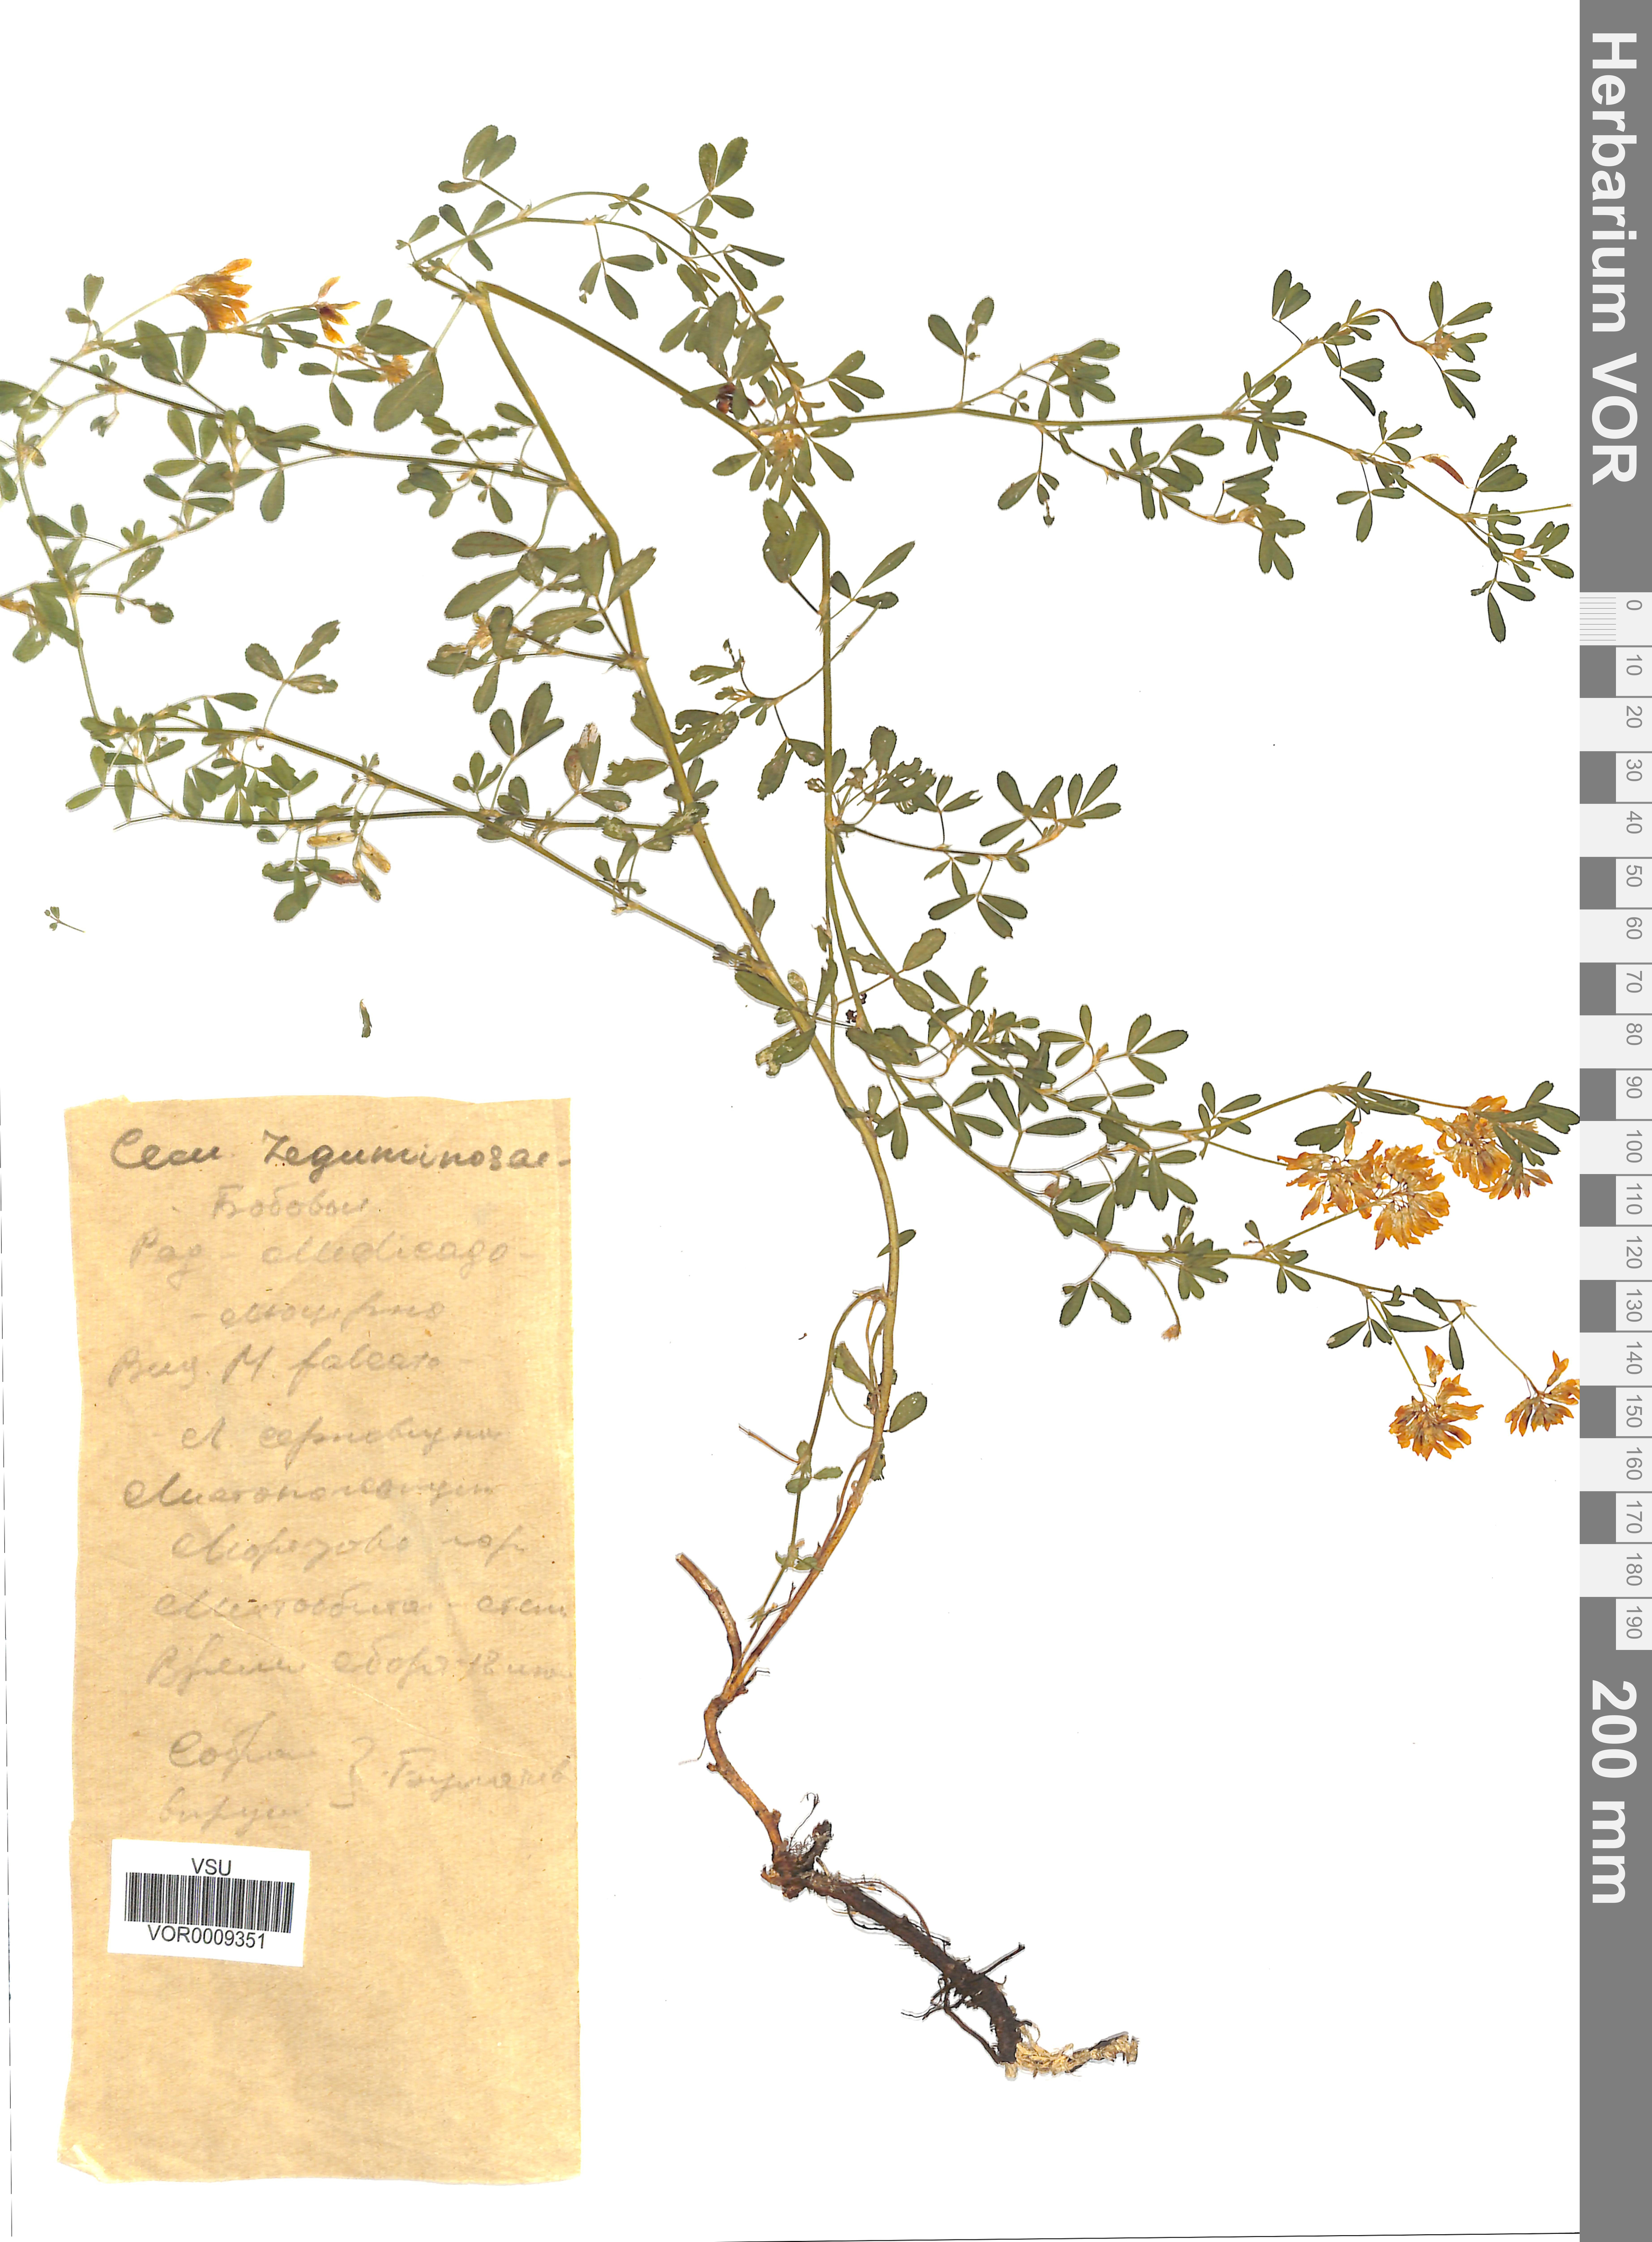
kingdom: Plantae
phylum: Tracheophyta
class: Magnoliopsida
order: Fabales
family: Fabaceae
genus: Medicago
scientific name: Medicago falcata
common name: Sickle medick
